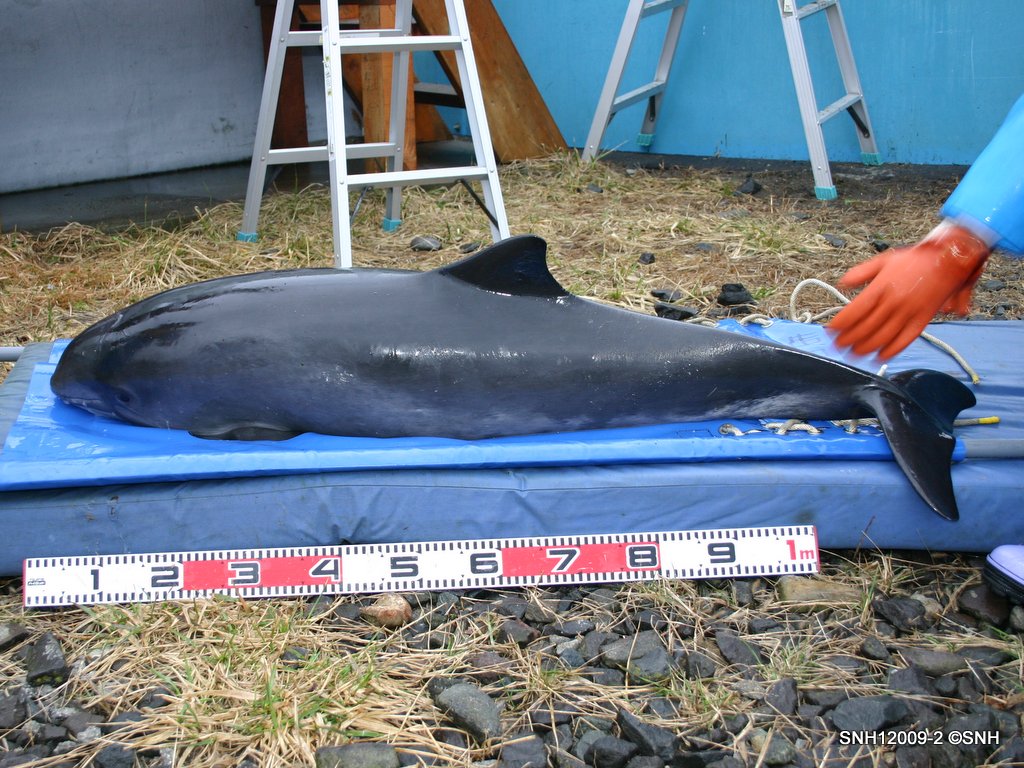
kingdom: Animalia
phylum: Chordata
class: Mammalia
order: Cetacea
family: Phocoenidae
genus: Phocoena
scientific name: Phocoena phocoena
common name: Harbour porpoise
